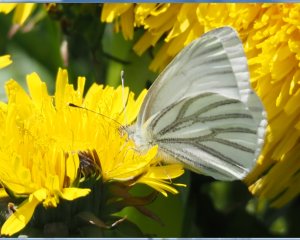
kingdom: Animalia
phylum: Arthropoda
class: Insecta
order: Lepidoptera
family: Pieridae
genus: Pieris
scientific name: Pieris oleracea
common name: Mustard White
